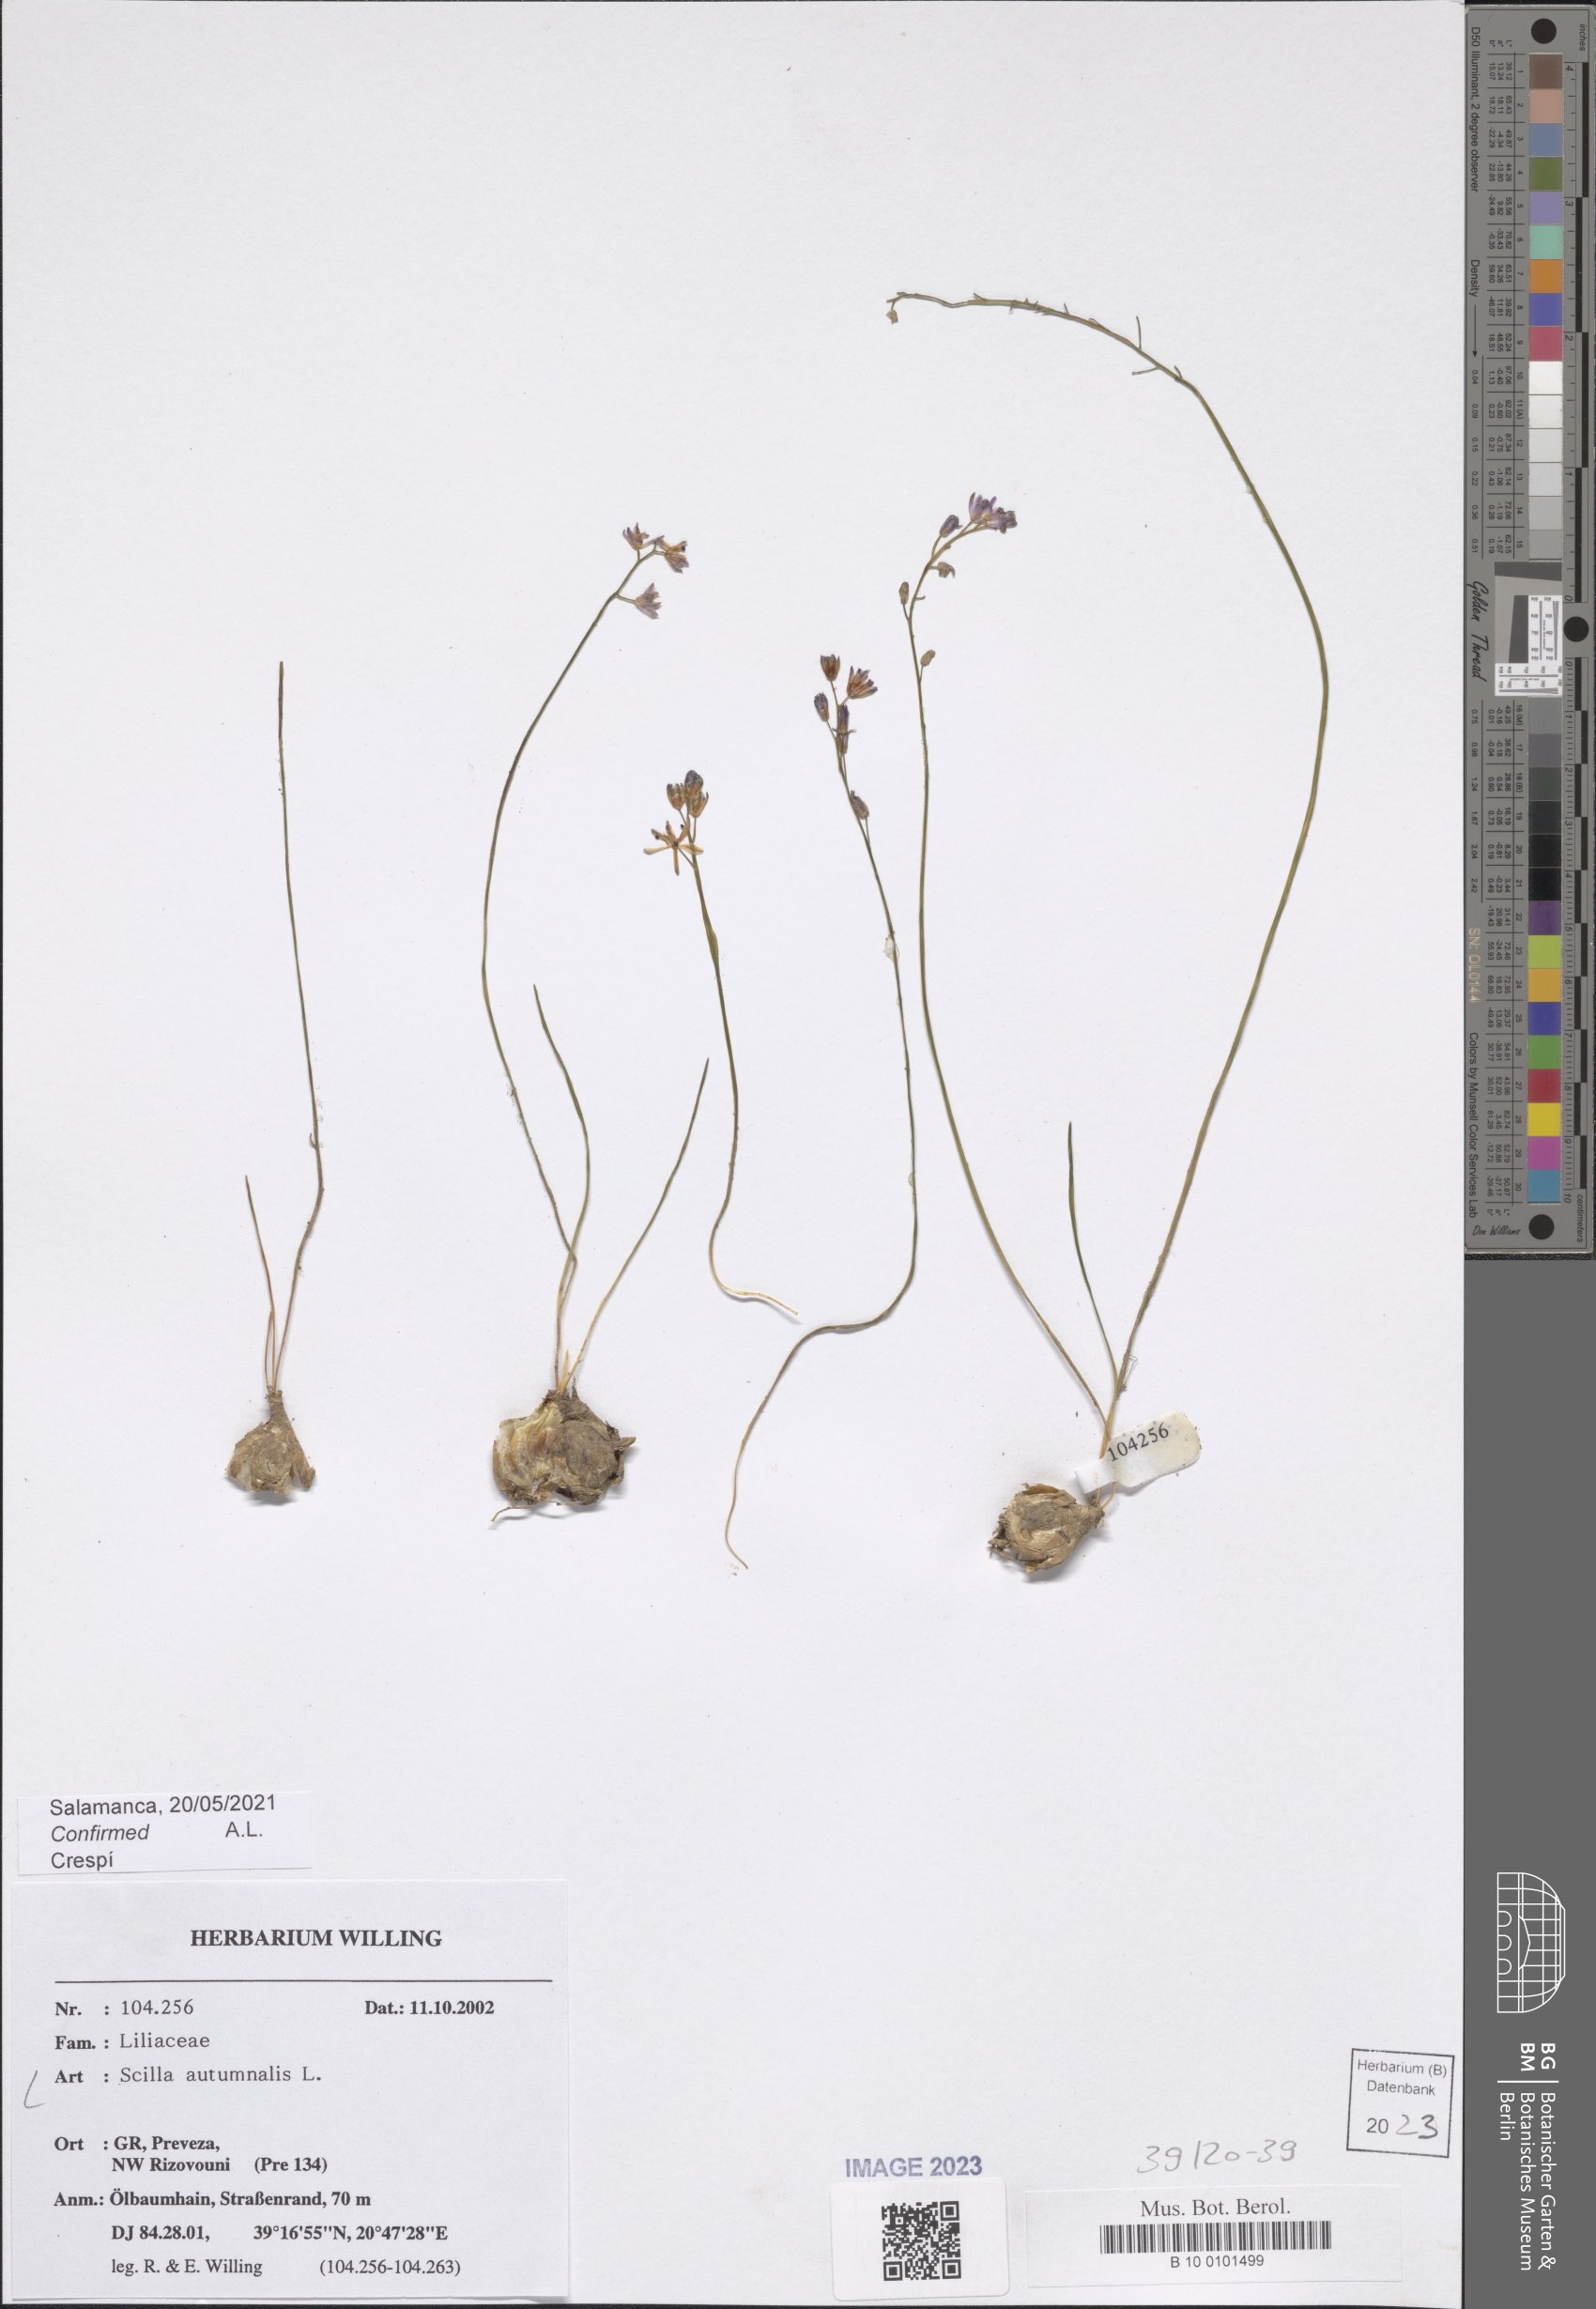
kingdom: Plantae
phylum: Tracheophyta
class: Liliopsida
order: Asparagales
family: Asparagaceae
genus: Prospero
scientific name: Prospero autumnale
